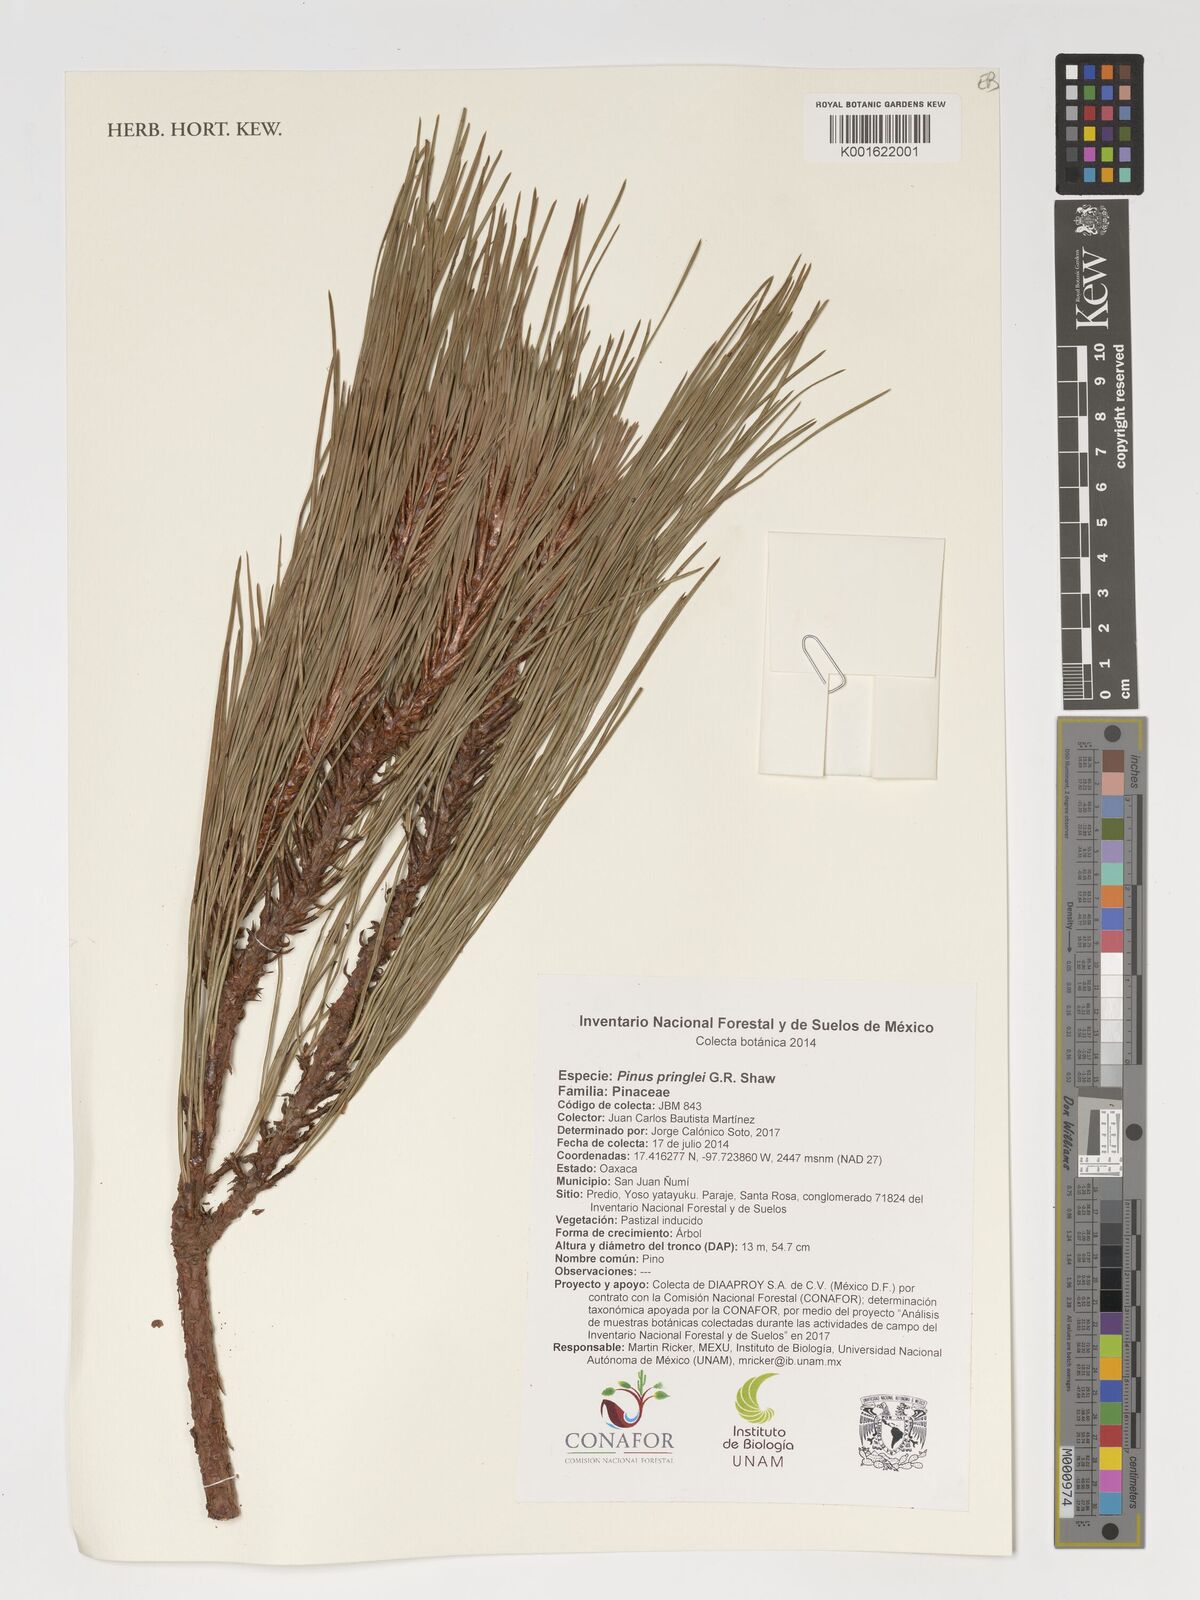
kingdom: Plantae
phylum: Tracheophyta
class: Pinopsida
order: Pinales
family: Pinaceae
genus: Pinus
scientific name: Pinus pringlei
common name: Pringle's pine
